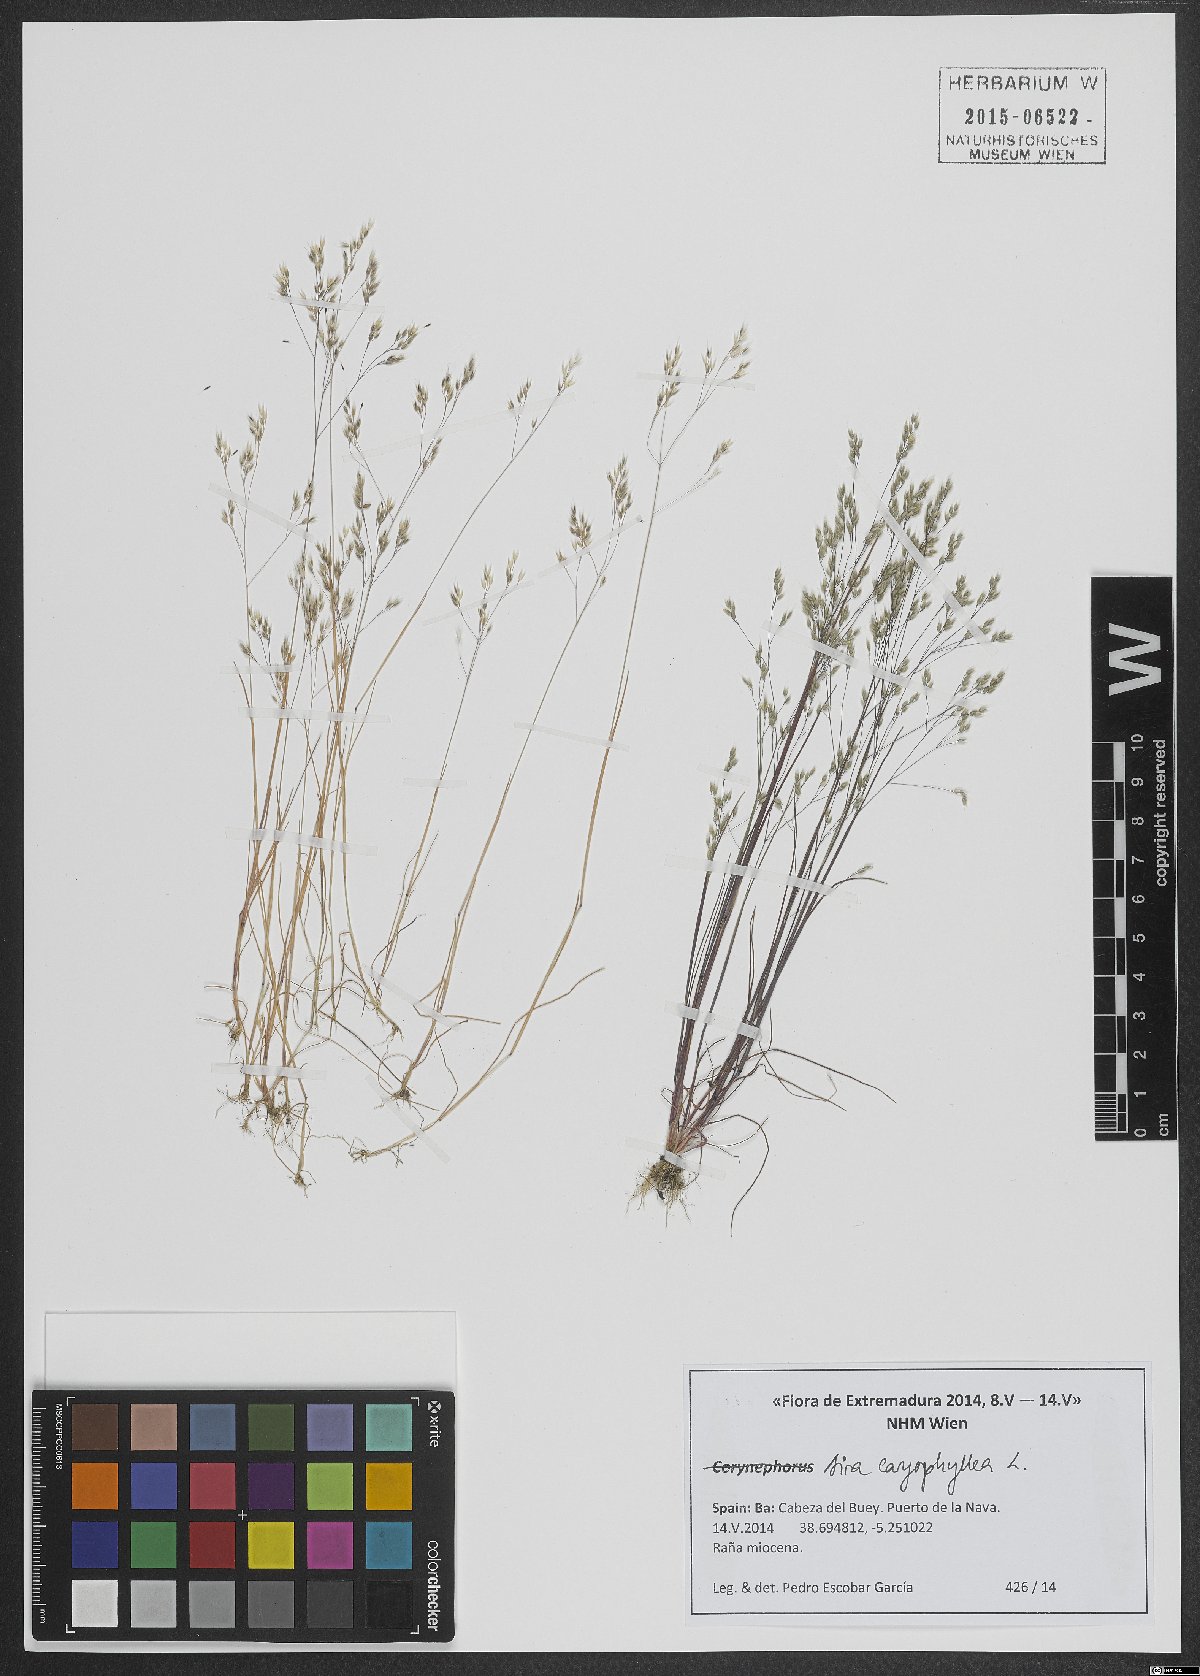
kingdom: Plantae
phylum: Tracheophyta
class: Liliopsida
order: Poales
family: Poaceae
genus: Aira
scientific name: Aira caryophyllea
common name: Silver hairgrass
